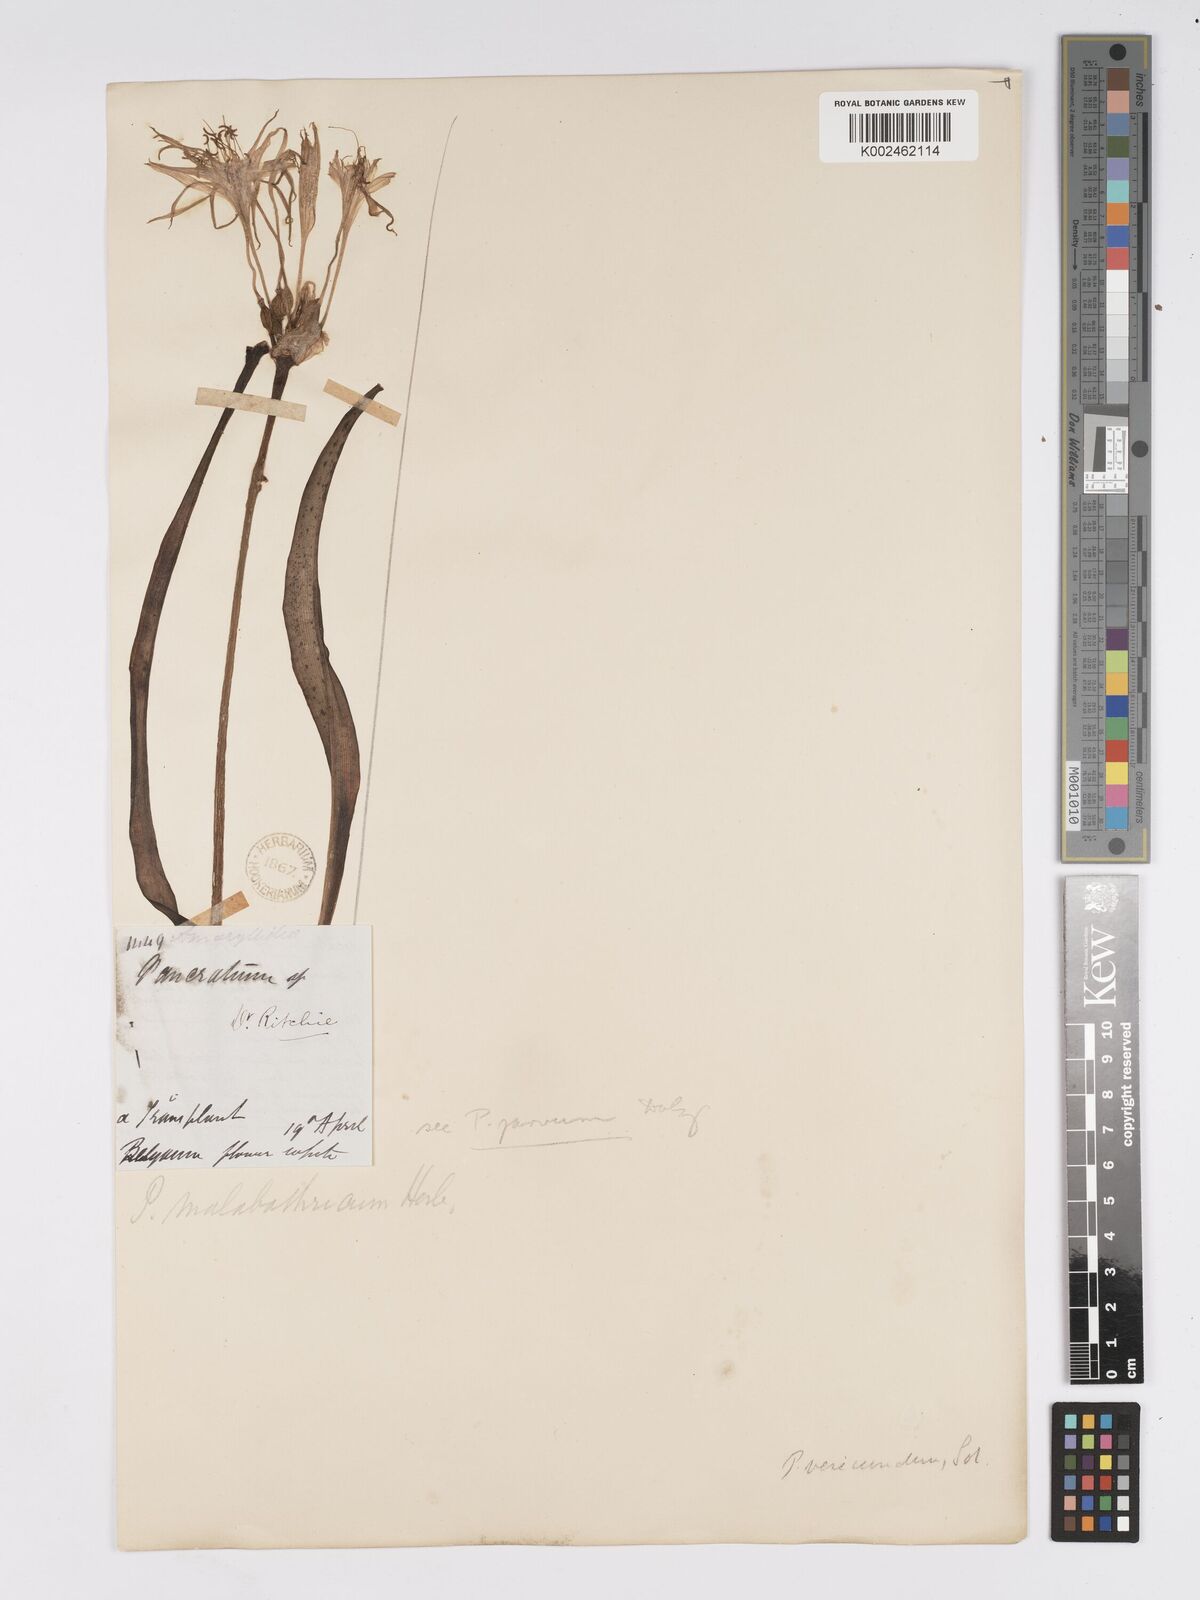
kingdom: Plantae
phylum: Tracheophyta
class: Liliopsida
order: Asparagales
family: Amaryllidaceae
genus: Pancratium
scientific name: Pancratium parvum
